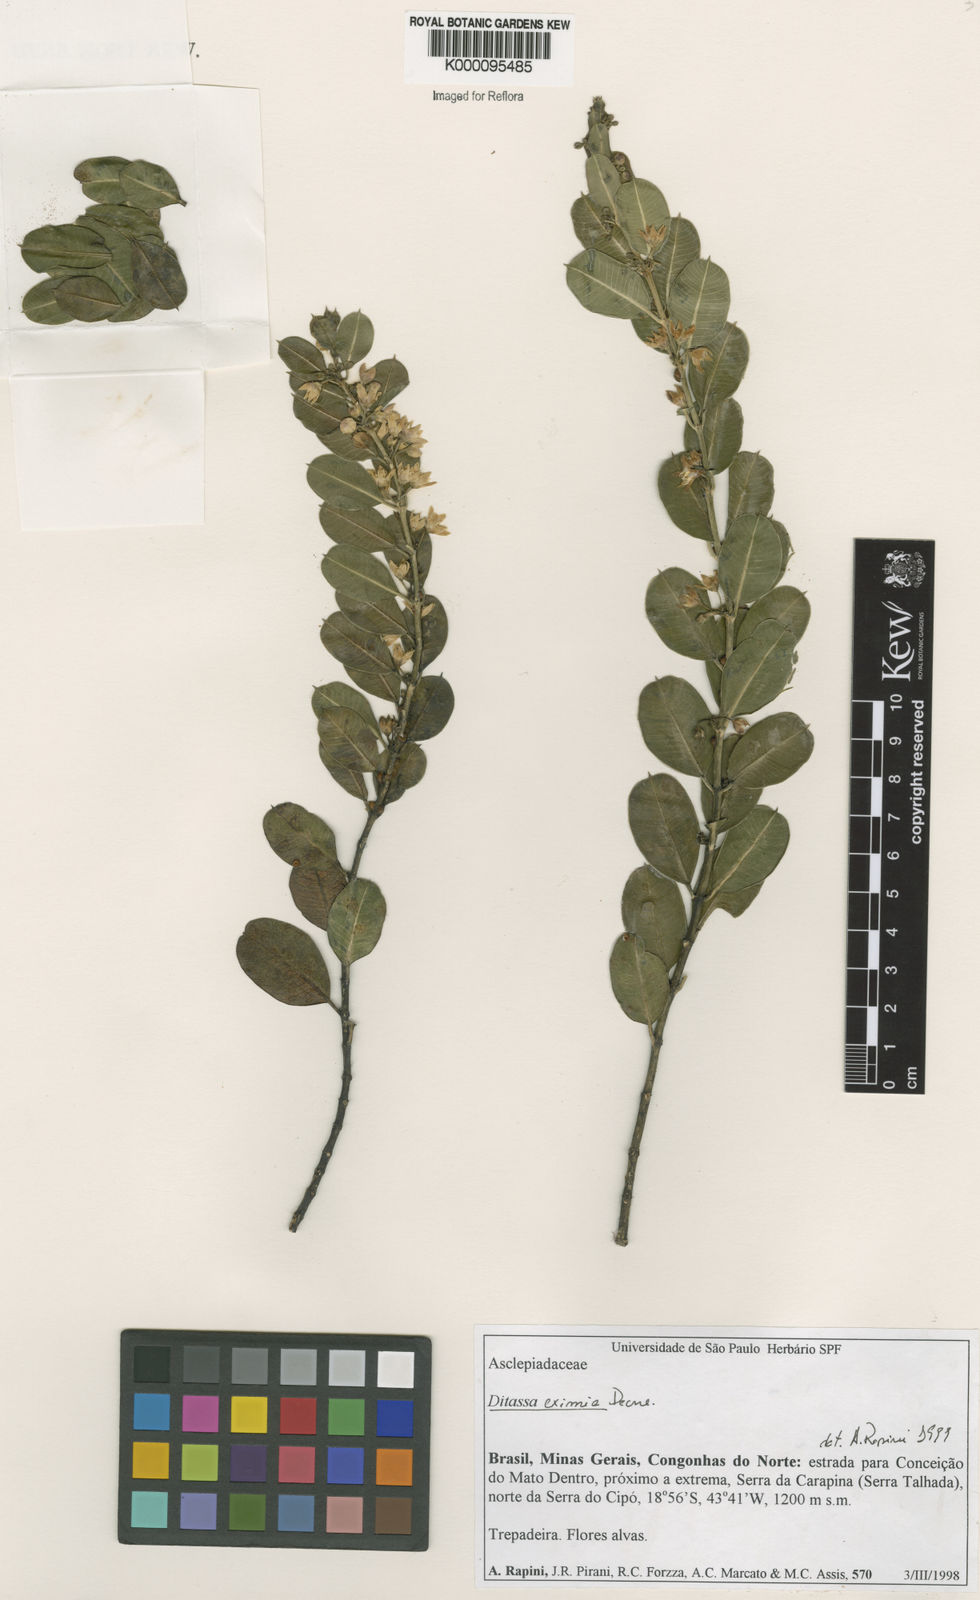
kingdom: Plantae
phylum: Tracheophyta
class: Magnoliopsida
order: Gentianales
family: Apocynaceae
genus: Ditassa
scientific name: Ditassa eximia
